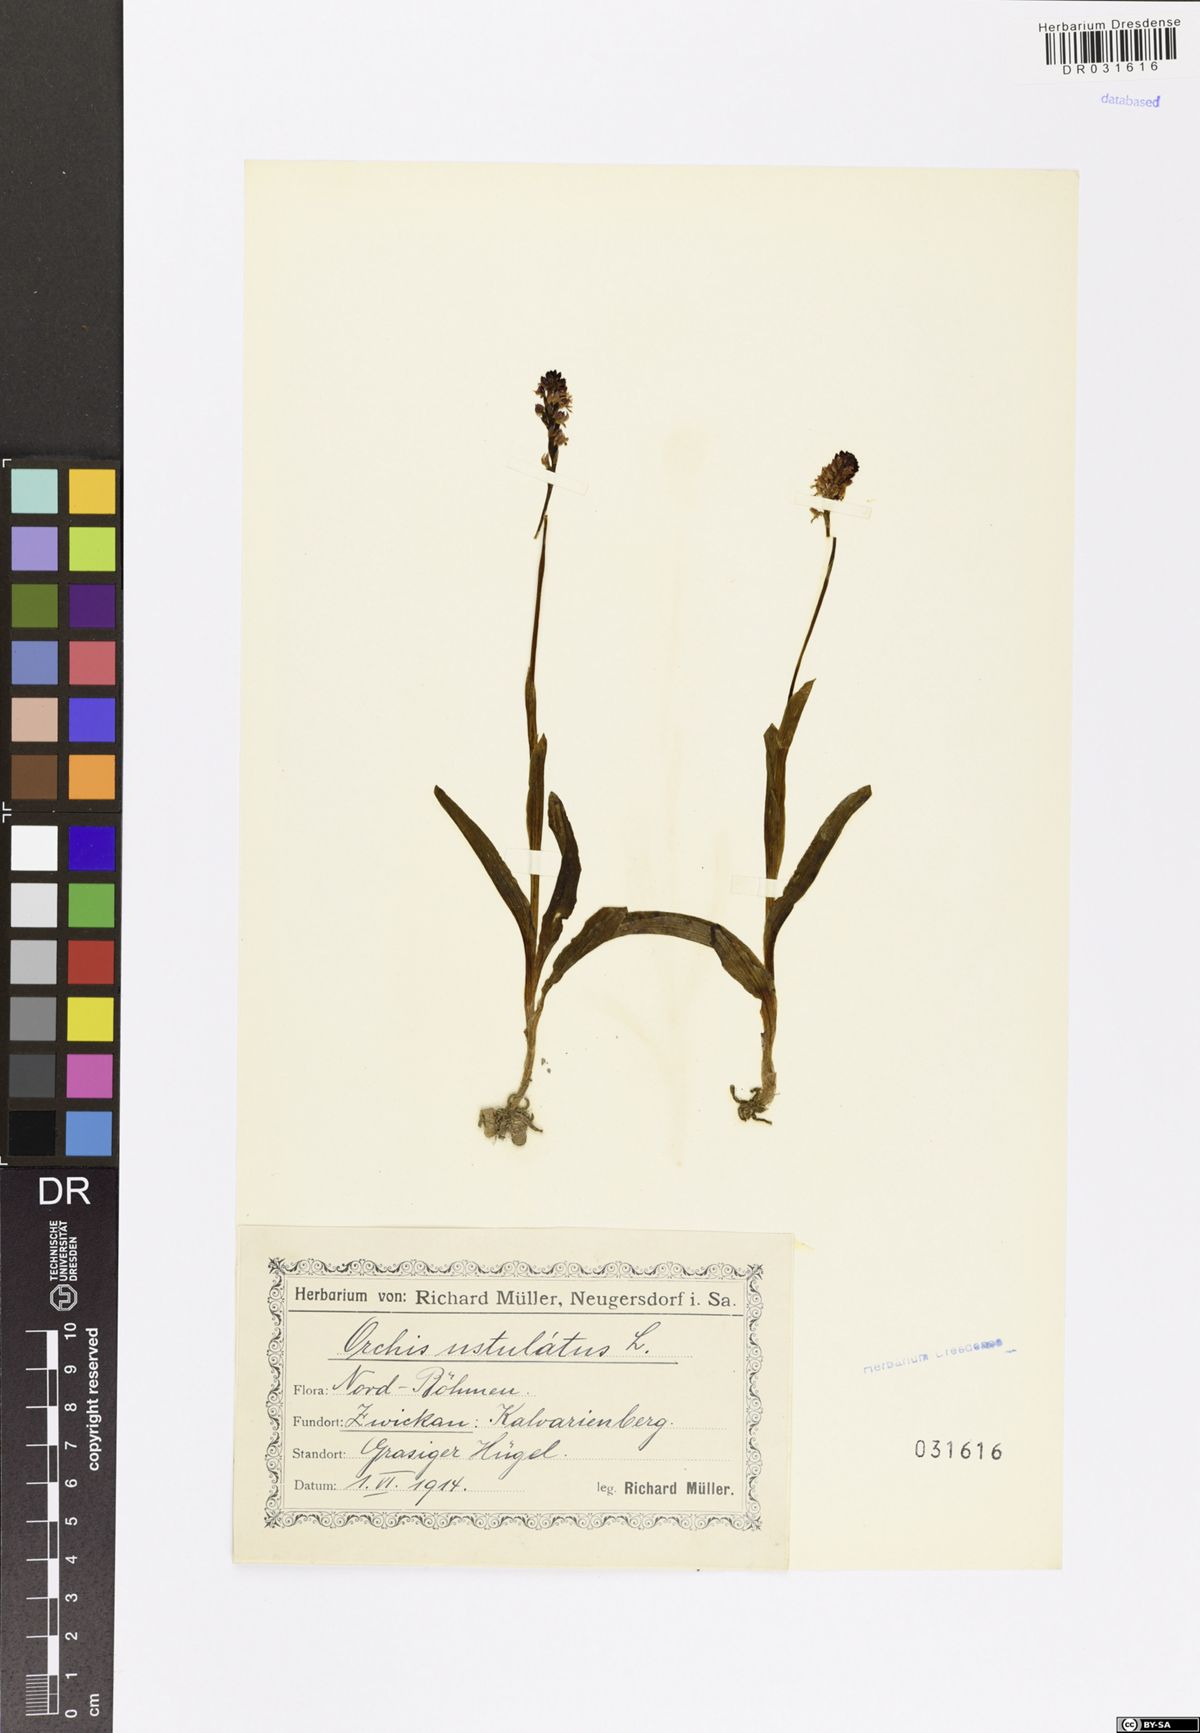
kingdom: Plantae
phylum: Tracheophyta
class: Liliopsida
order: Asparagales
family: Orchidaceae
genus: Neotinea
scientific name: Neotinea ustulata
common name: Burnt orchid
